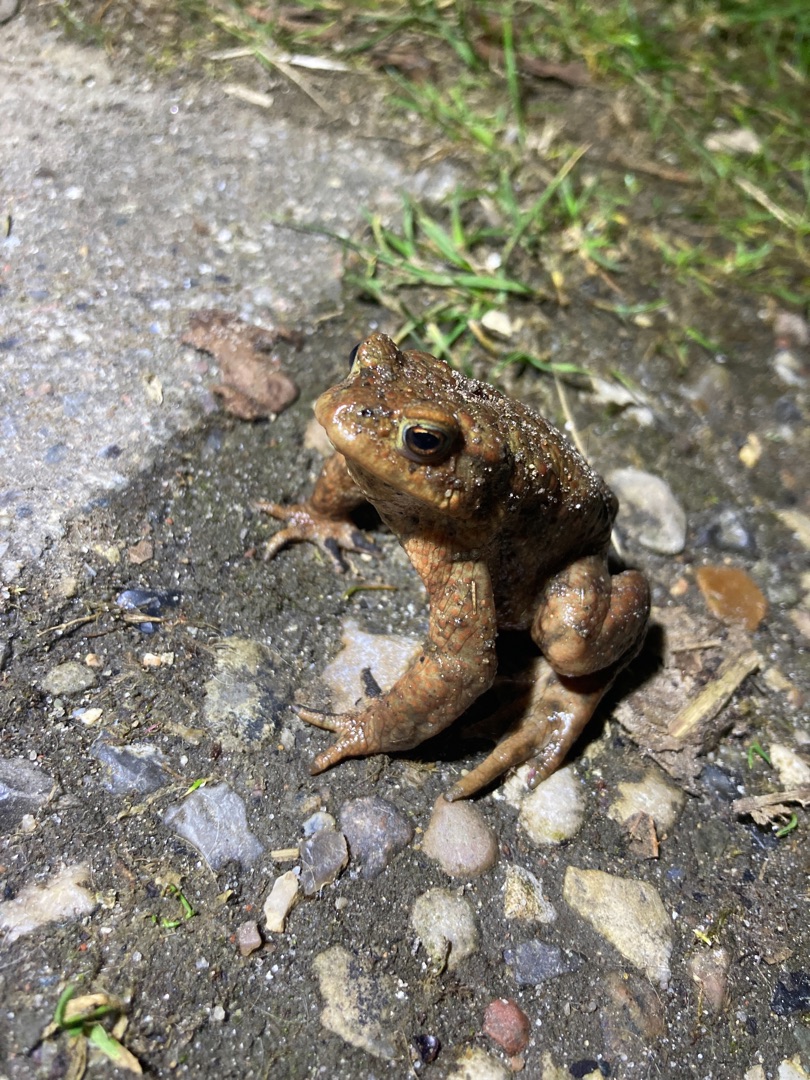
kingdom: Animalia
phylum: Chordata
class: Amphibia
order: Anura
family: Bufonidae
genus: Bufo
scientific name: Bufo bufo
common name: Skrubtudse
